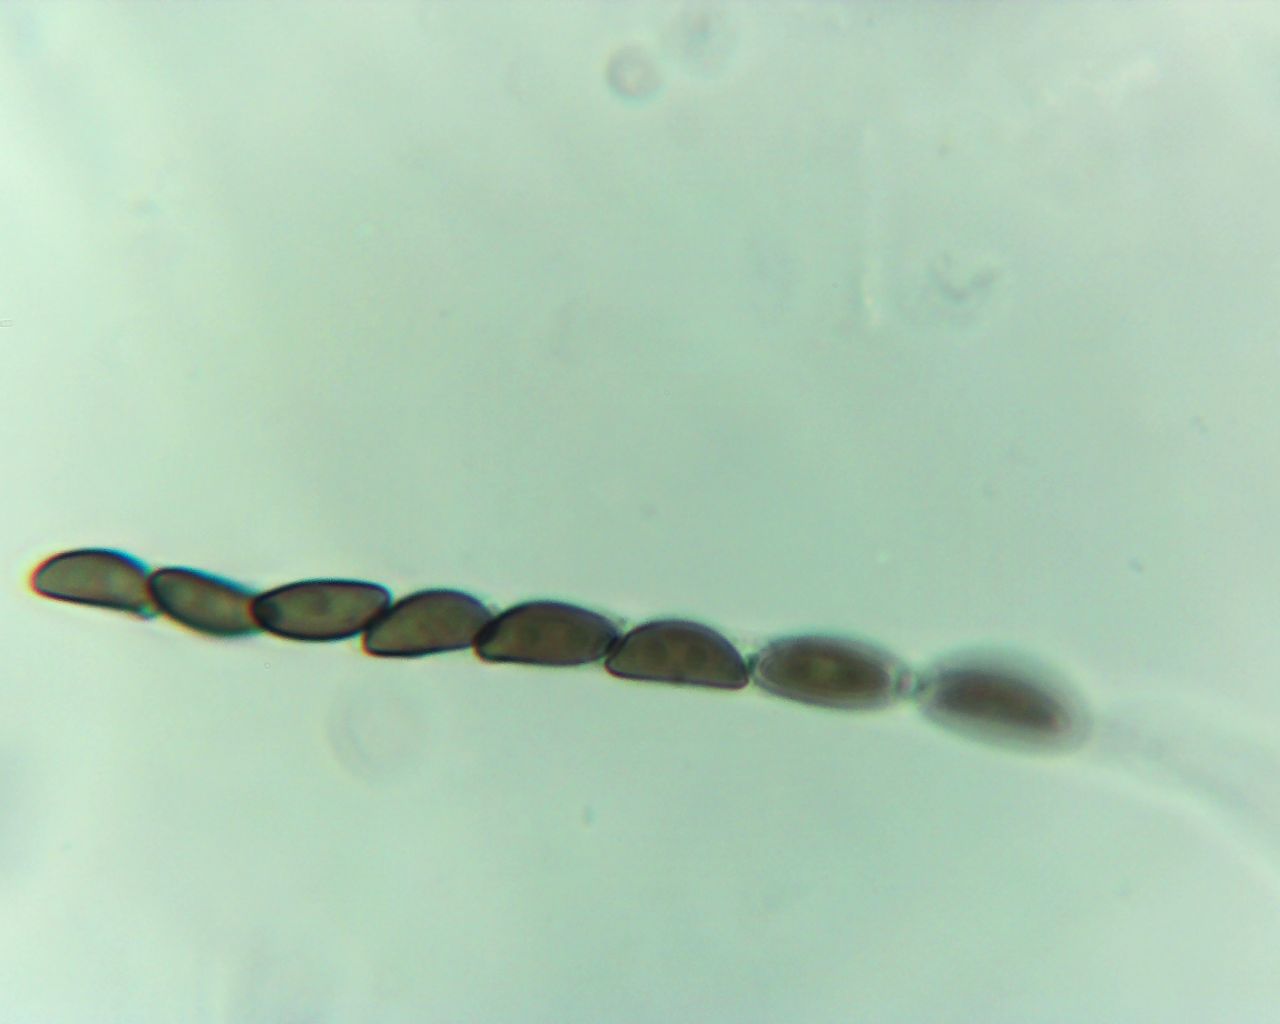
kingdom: Fungi
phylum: Ascomycota
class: Sordariomycetes
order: Xylariales
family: Hypoxylaceae
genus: Jackrogersella
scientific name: Jackrogersella multiformis
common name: foranderlig kulbær
